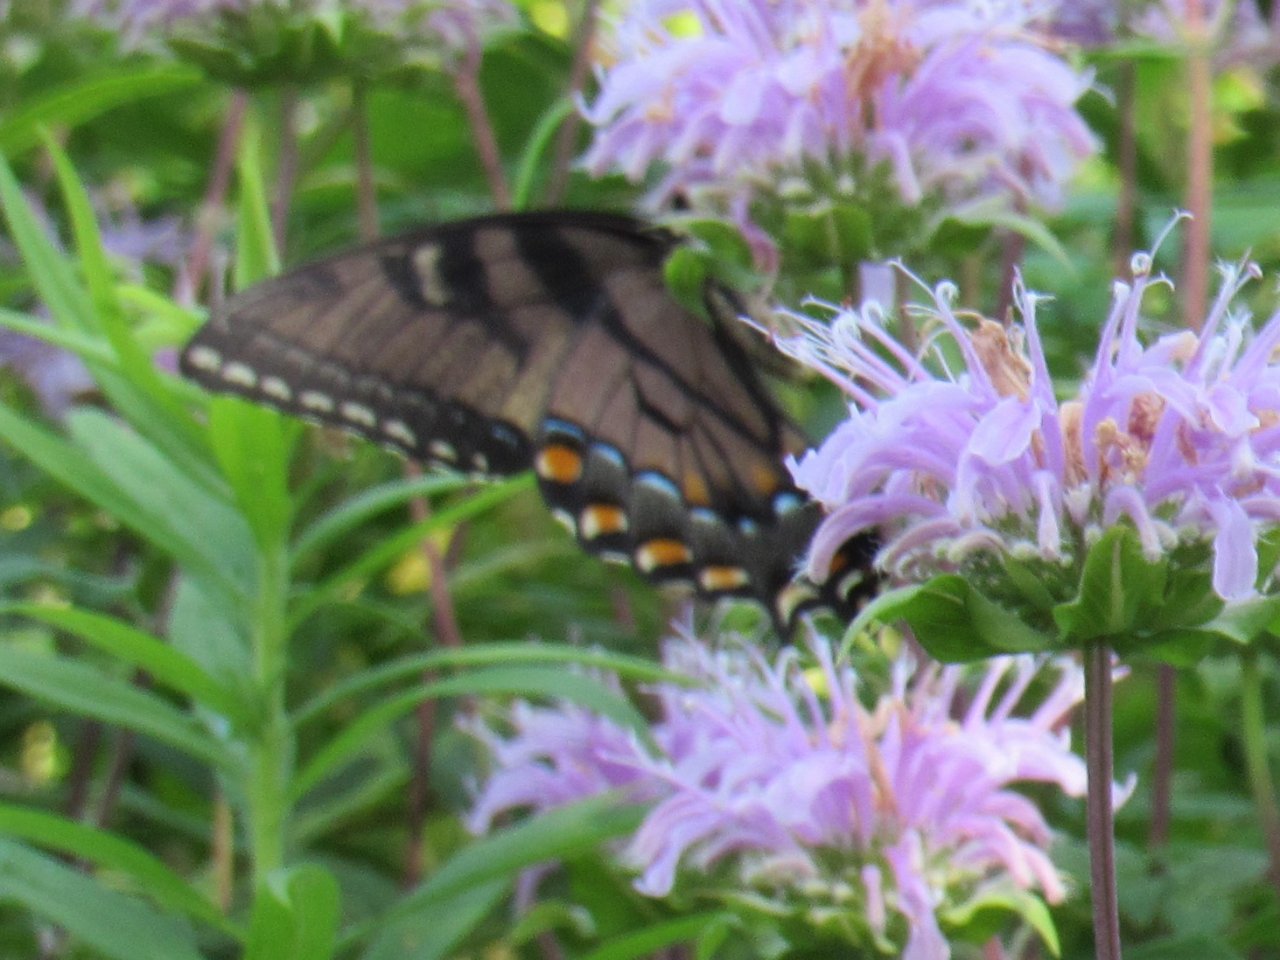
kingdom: Animalia
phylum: Arthropoda
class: Insecta
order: Lepidoptera
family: Papilionidae
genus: Pterourus
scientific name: Pterourus glaucus
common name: Eastern Tiger Swallowtail
